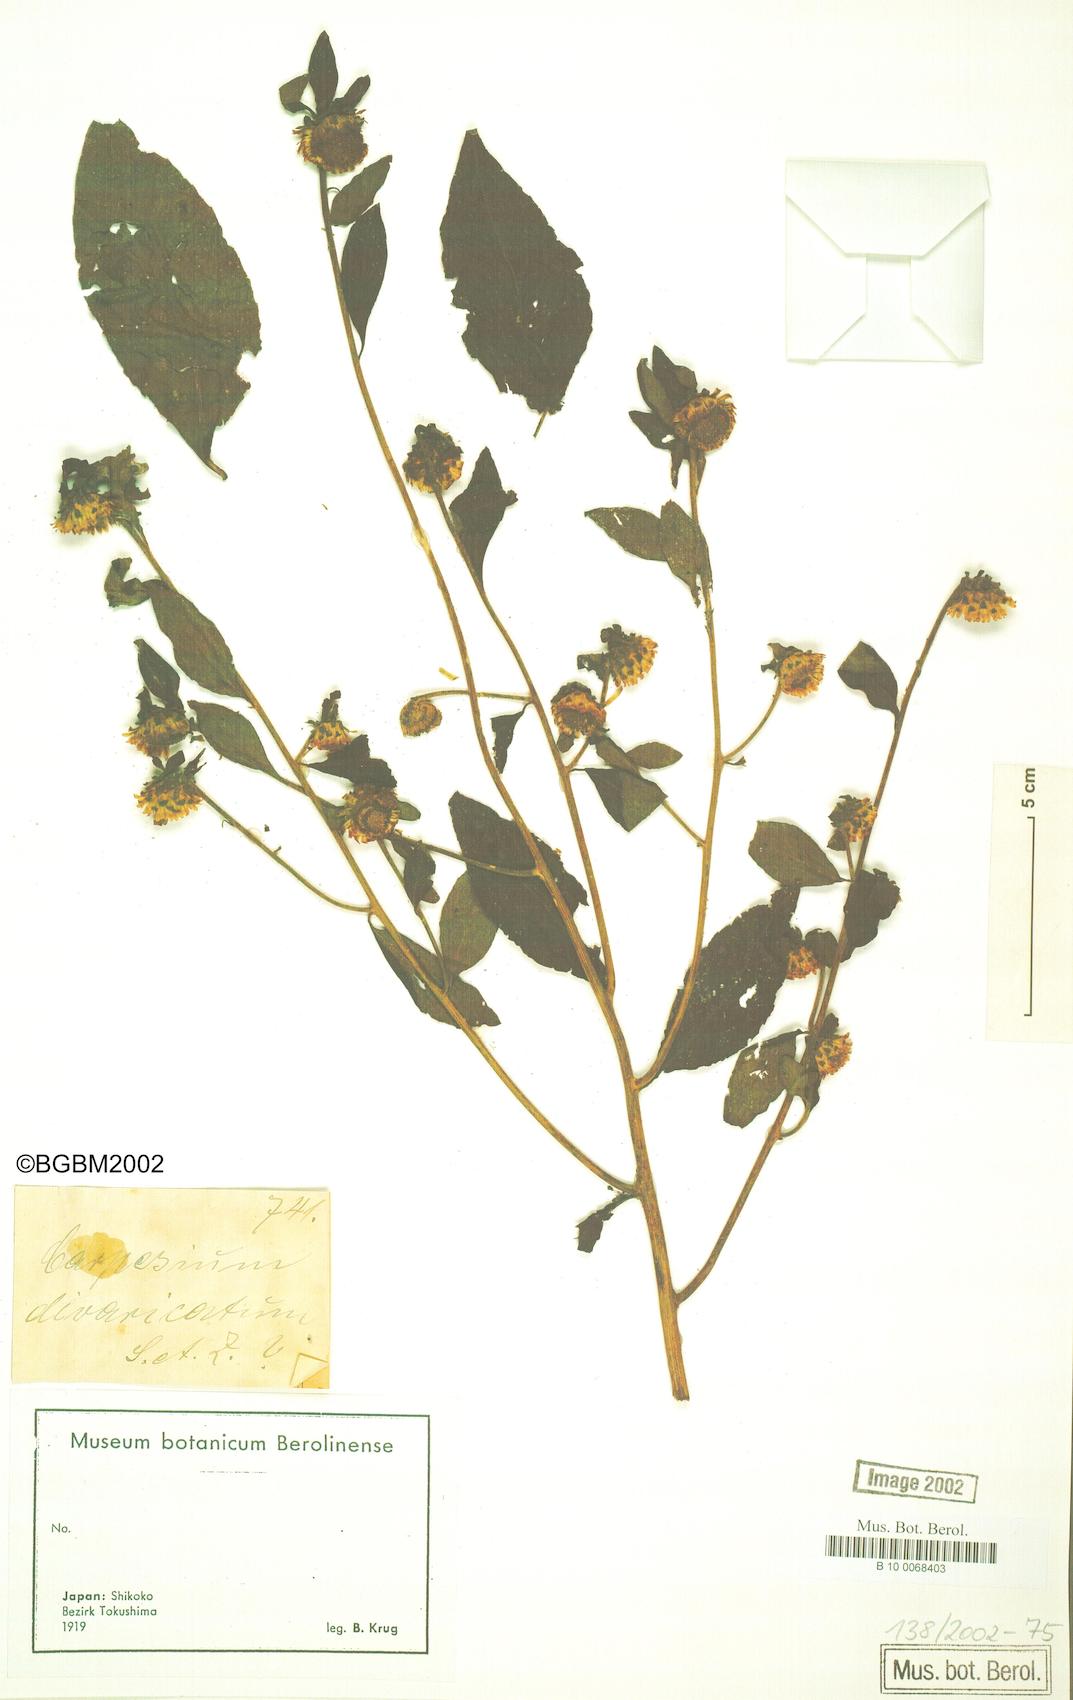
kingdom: Plantae
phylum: Tracheophyta
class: Magnoliopsida
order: Asterales
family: Asteraceae
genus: Carpesium
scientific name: Carpesium cernuum
